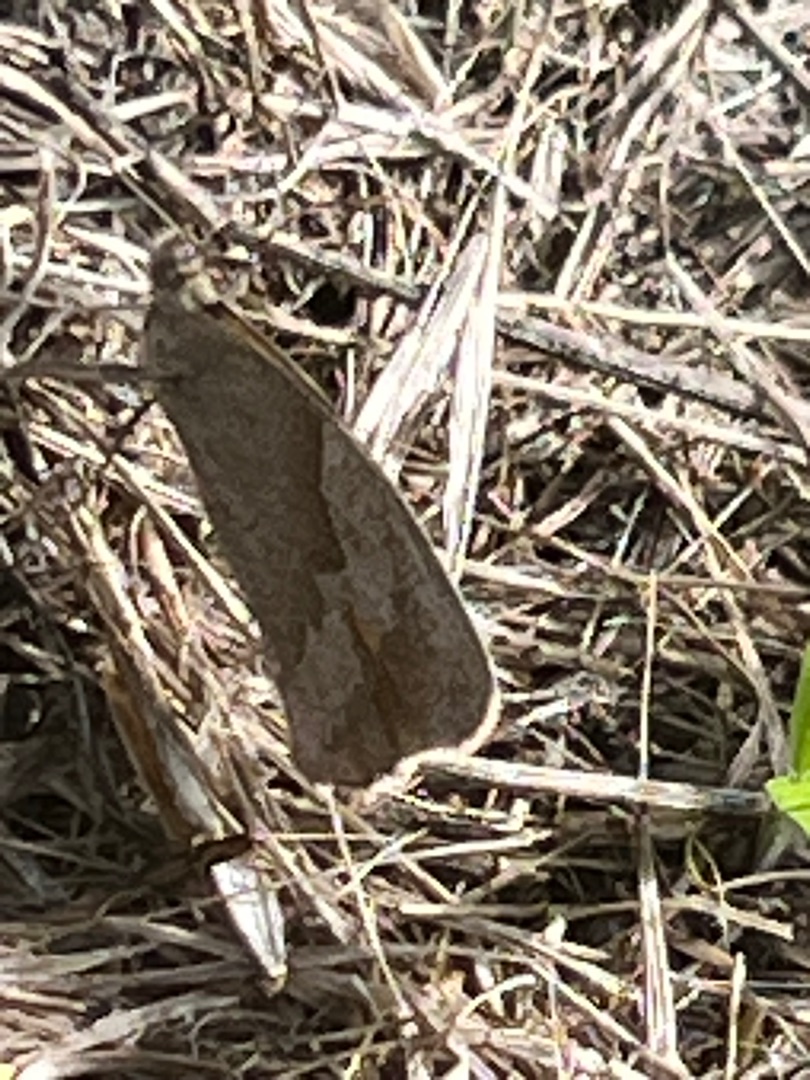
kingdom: Animalia
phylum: Arthropoda
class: Insecta
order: Lepidoptera
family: Nymphalidae
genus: Maniola
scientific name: Maniola jurtina
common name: Græsrandøje
